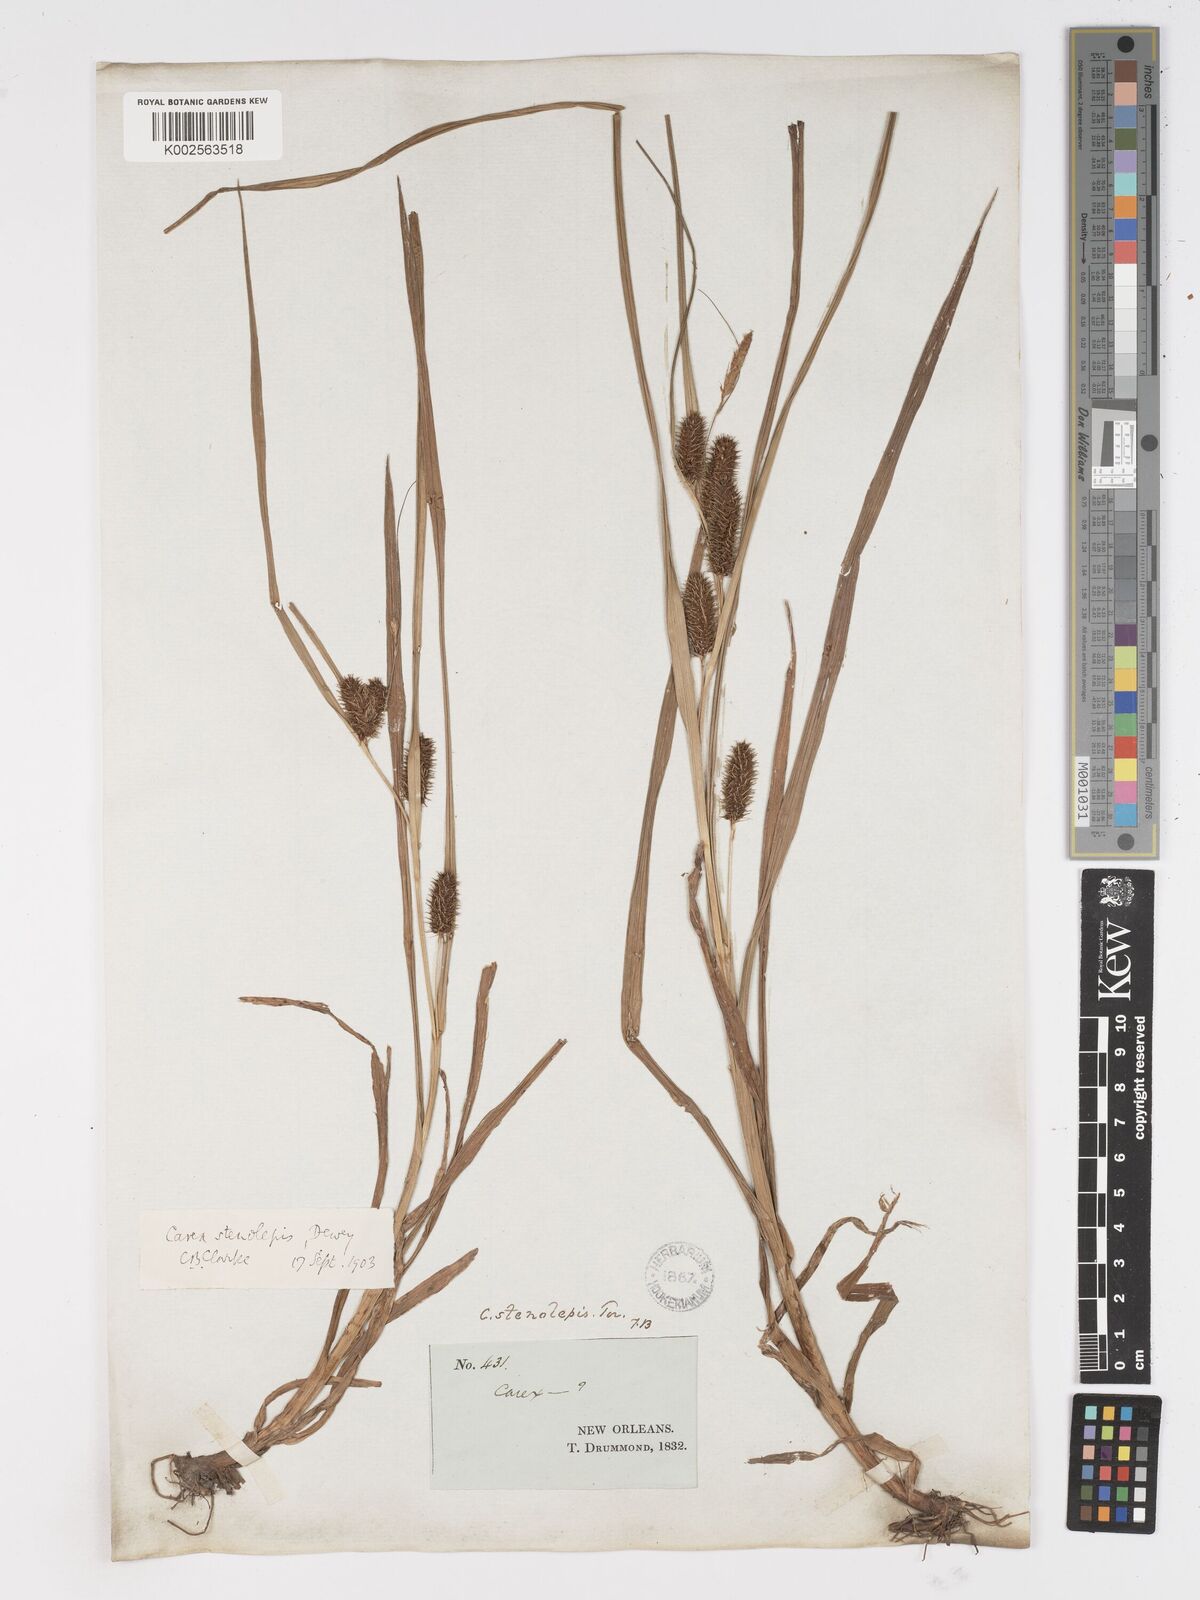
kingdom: Plantae
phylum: Tracheophyta
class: Liliopsida
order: Poales
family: Cyperaceae
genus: Carex
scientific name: Carex frankii
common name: Frank's sedge
